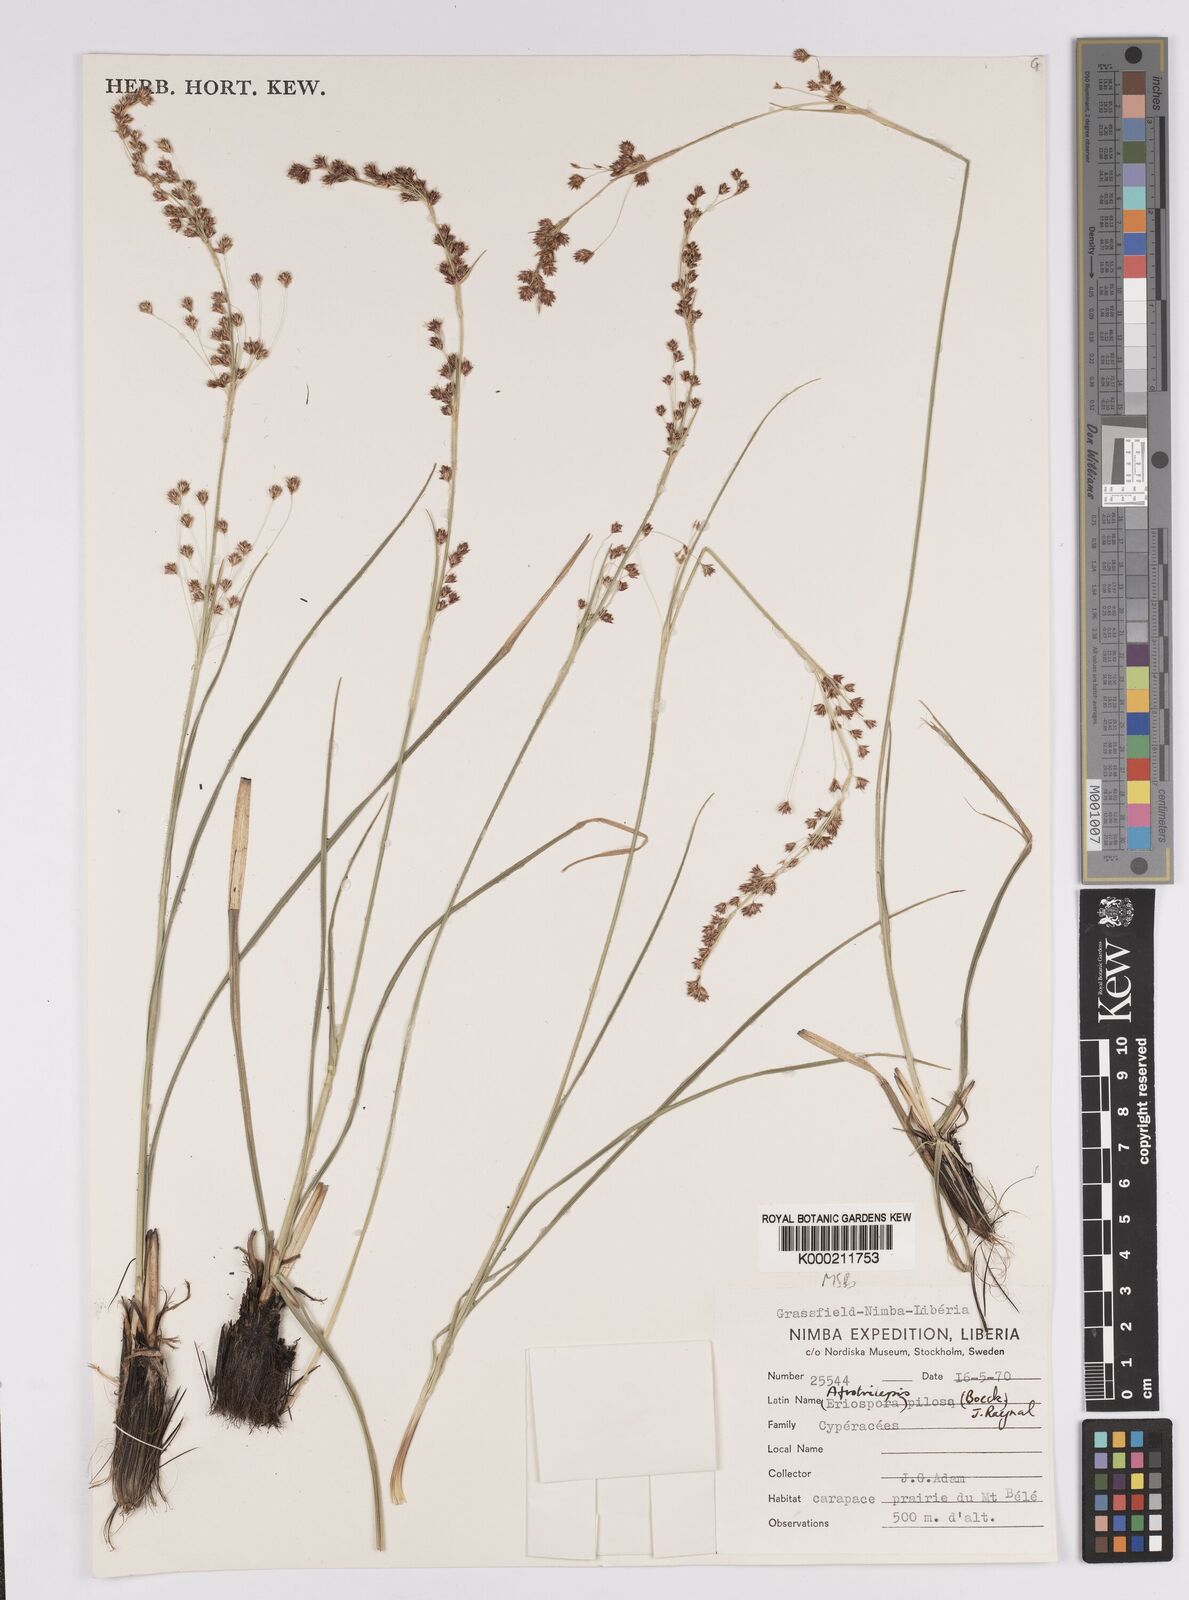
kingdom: Plantae
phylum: Tracheophyta
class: Liliopsida
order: Poales
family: Cyperaceae
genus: Afrotrilepis
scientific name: Afrotrilepis pilosa
